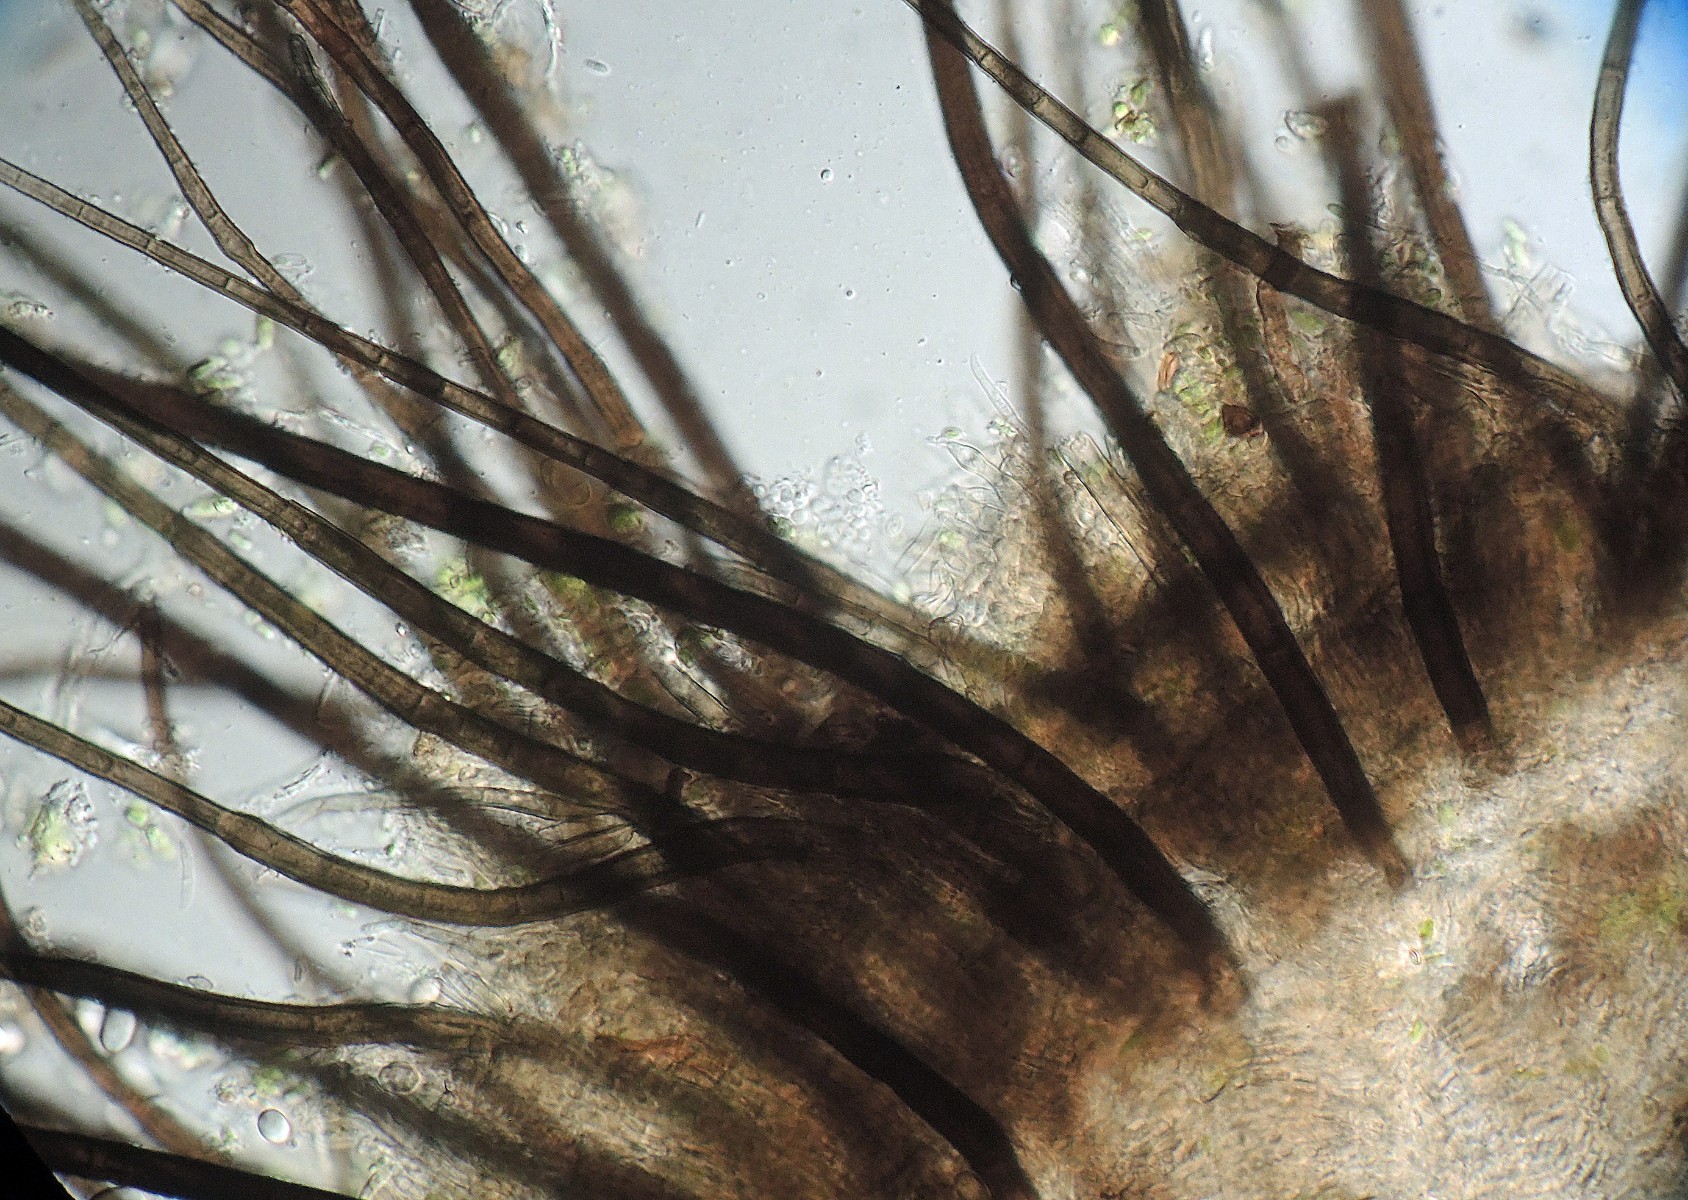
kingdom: Fungi
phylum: Ascomycota
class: Sordariomycetes
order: Chaetosphaeriales
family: Chaetosphaeriaceae
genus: Pseudolachnea
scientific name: Pseudolachnea hispidula
